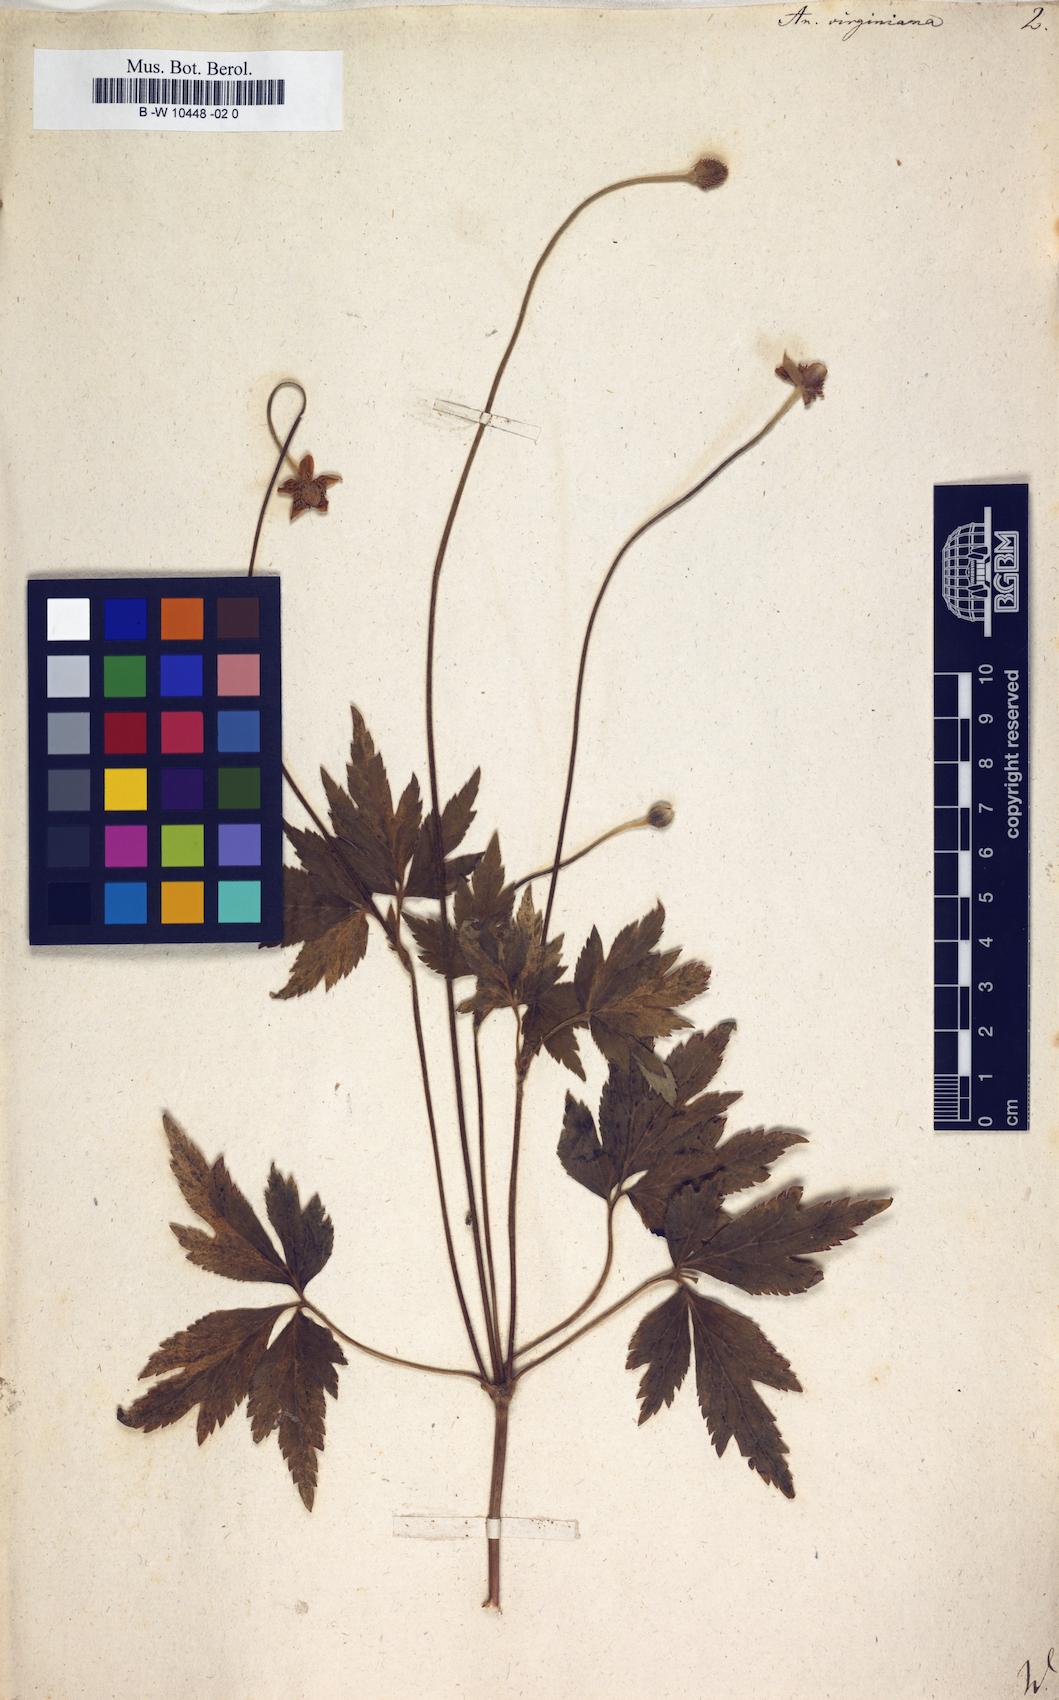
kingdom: Plantae
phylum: Tracheophyta
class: Magnoliopsida
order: Ranunculales
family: Ranunculaceae
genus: Anemone
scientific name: Anemone virginiana
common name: Tall anemone
